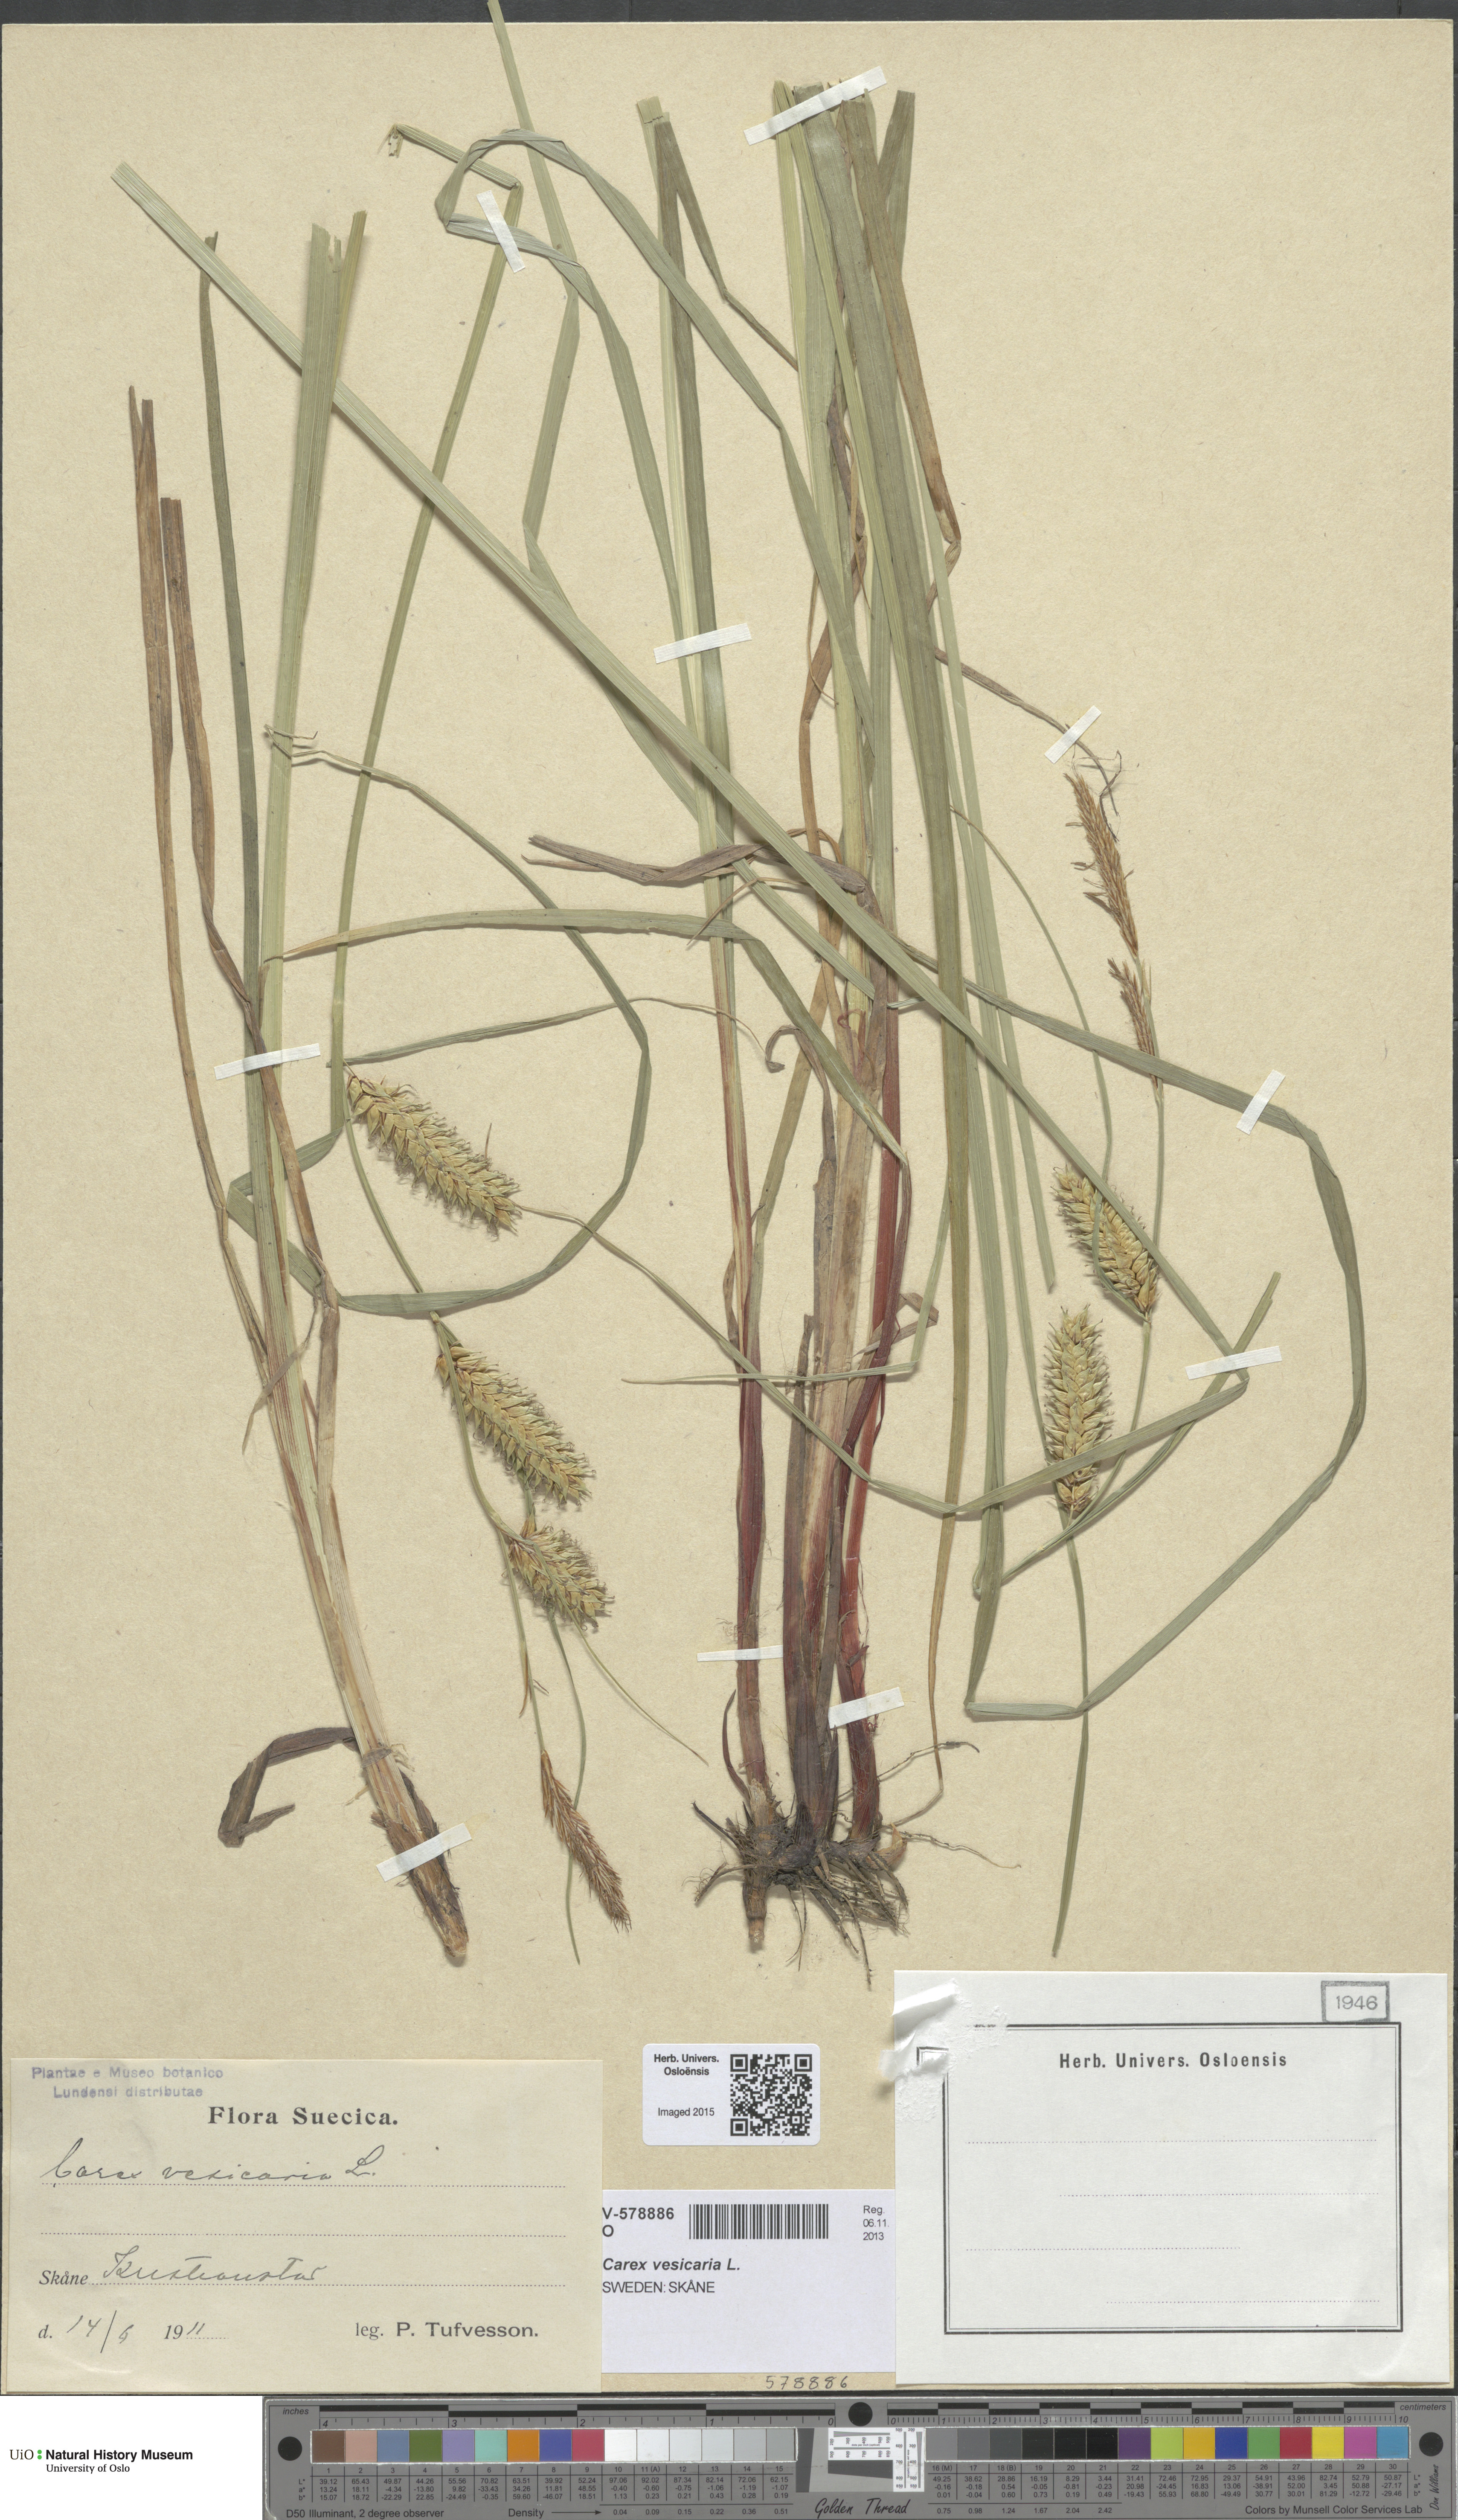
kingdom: Plantae
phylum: Tracheophyta
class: Liliopsida
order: Poales
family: Cyperaceae
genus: Carex
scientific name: Carex vesicaria
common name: Bladder-sedge
